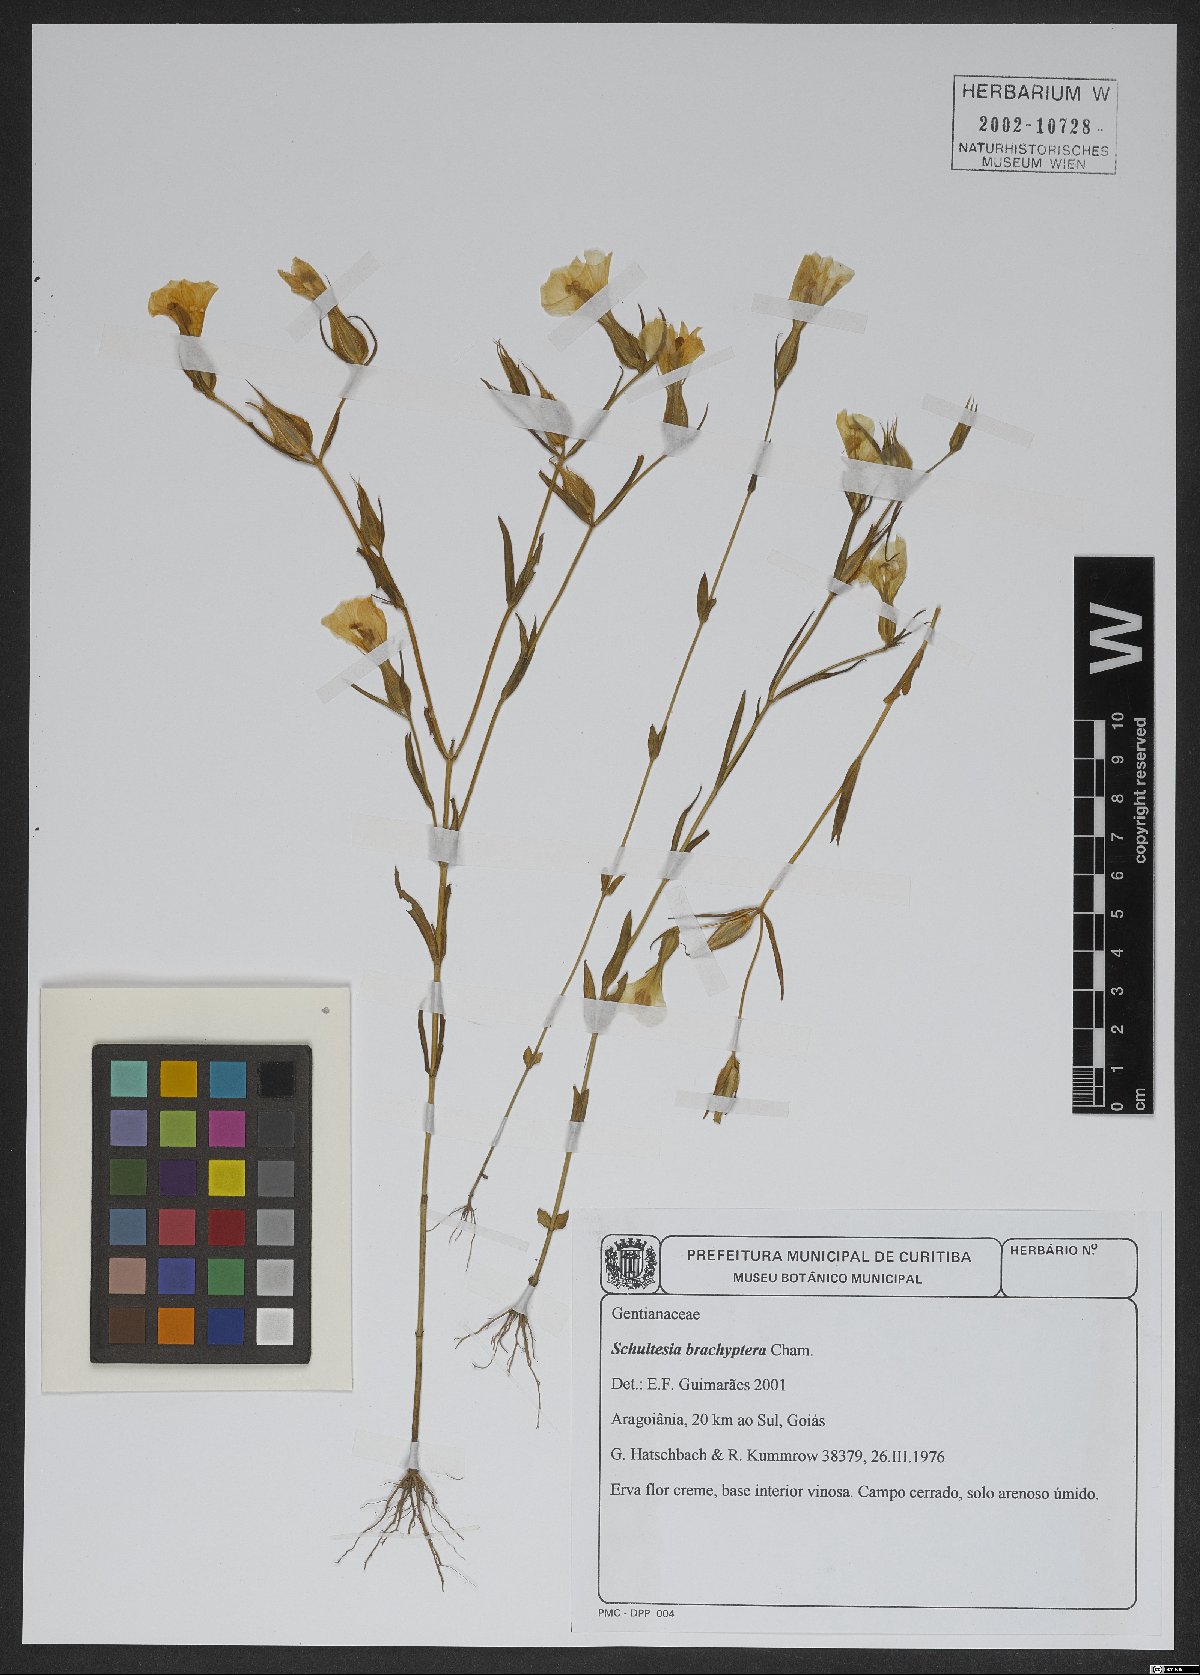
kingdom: Plantae
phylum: Tracheophyta
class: Magnoliopsida
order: Gentianales
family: Gentianaceae
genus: Schultesia
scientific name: Schultesia brachyptera
